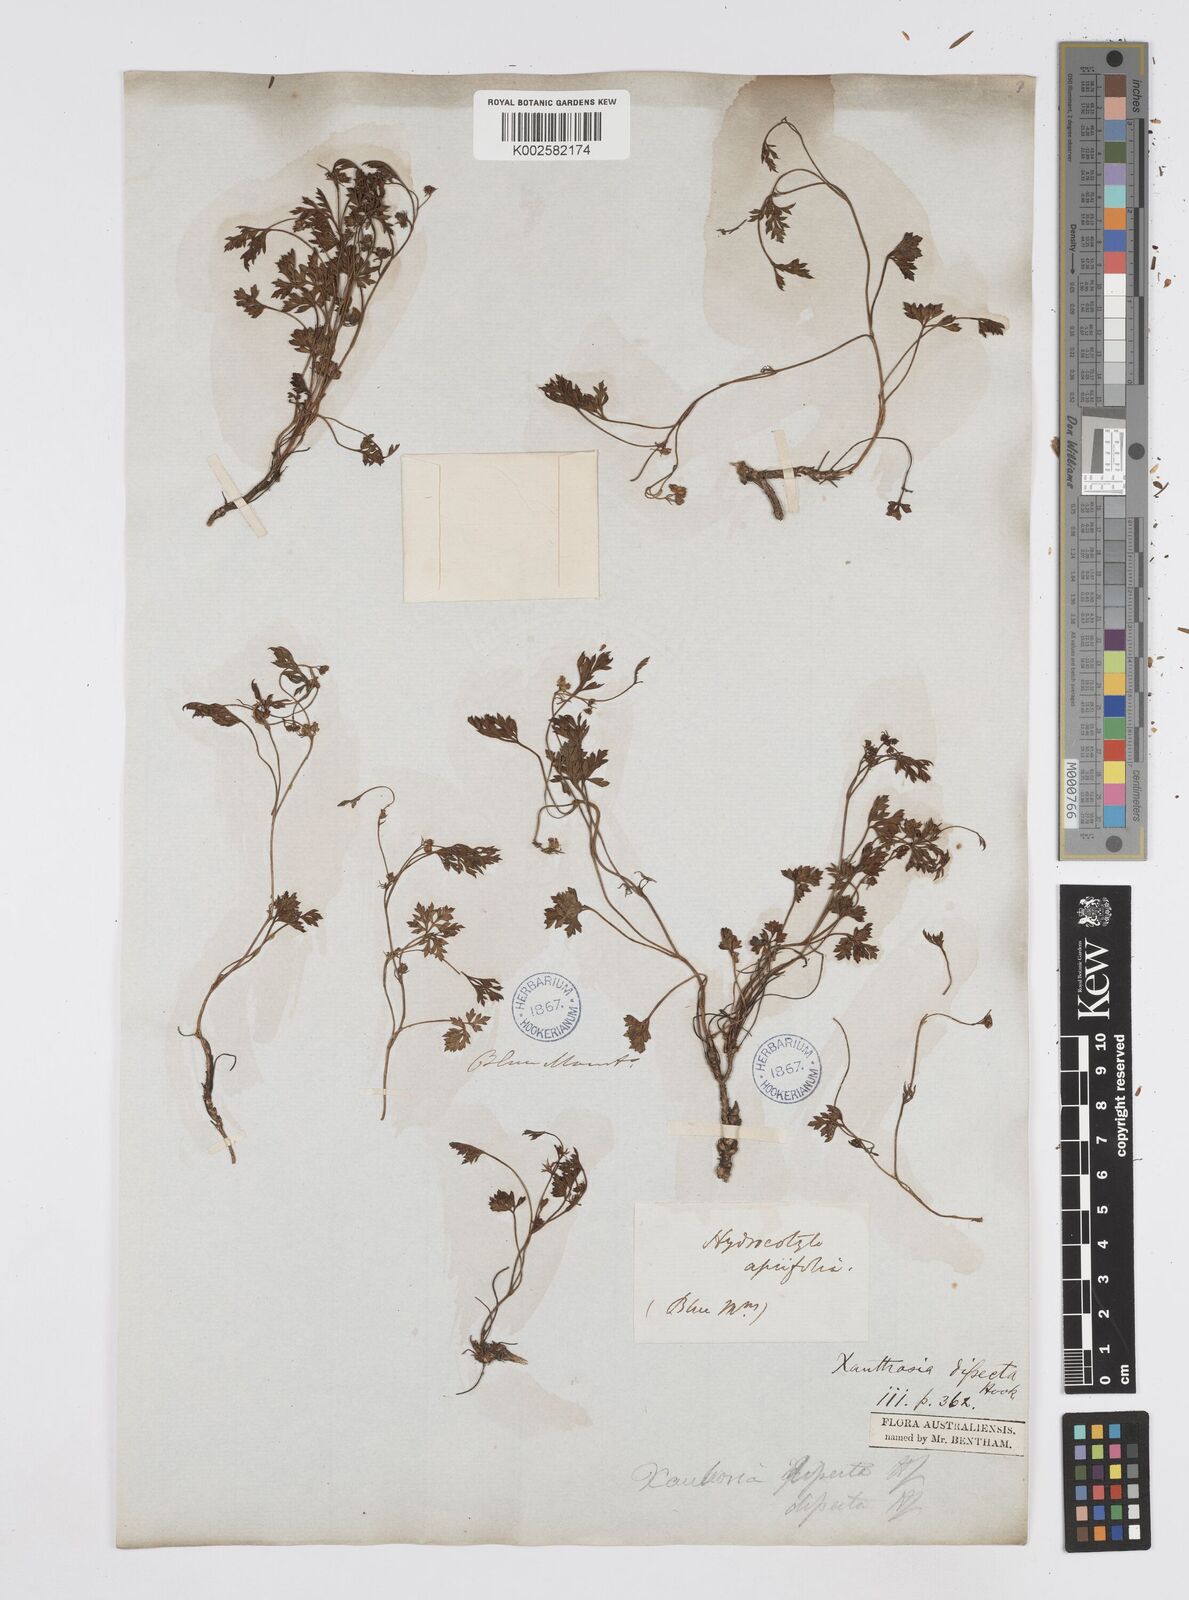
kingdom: Plantae
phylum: Tracheophyta
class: Magnoliopsida
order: Apiales
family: Apiaceae
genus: Xanthosia
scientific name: Xanthosia dissecta
